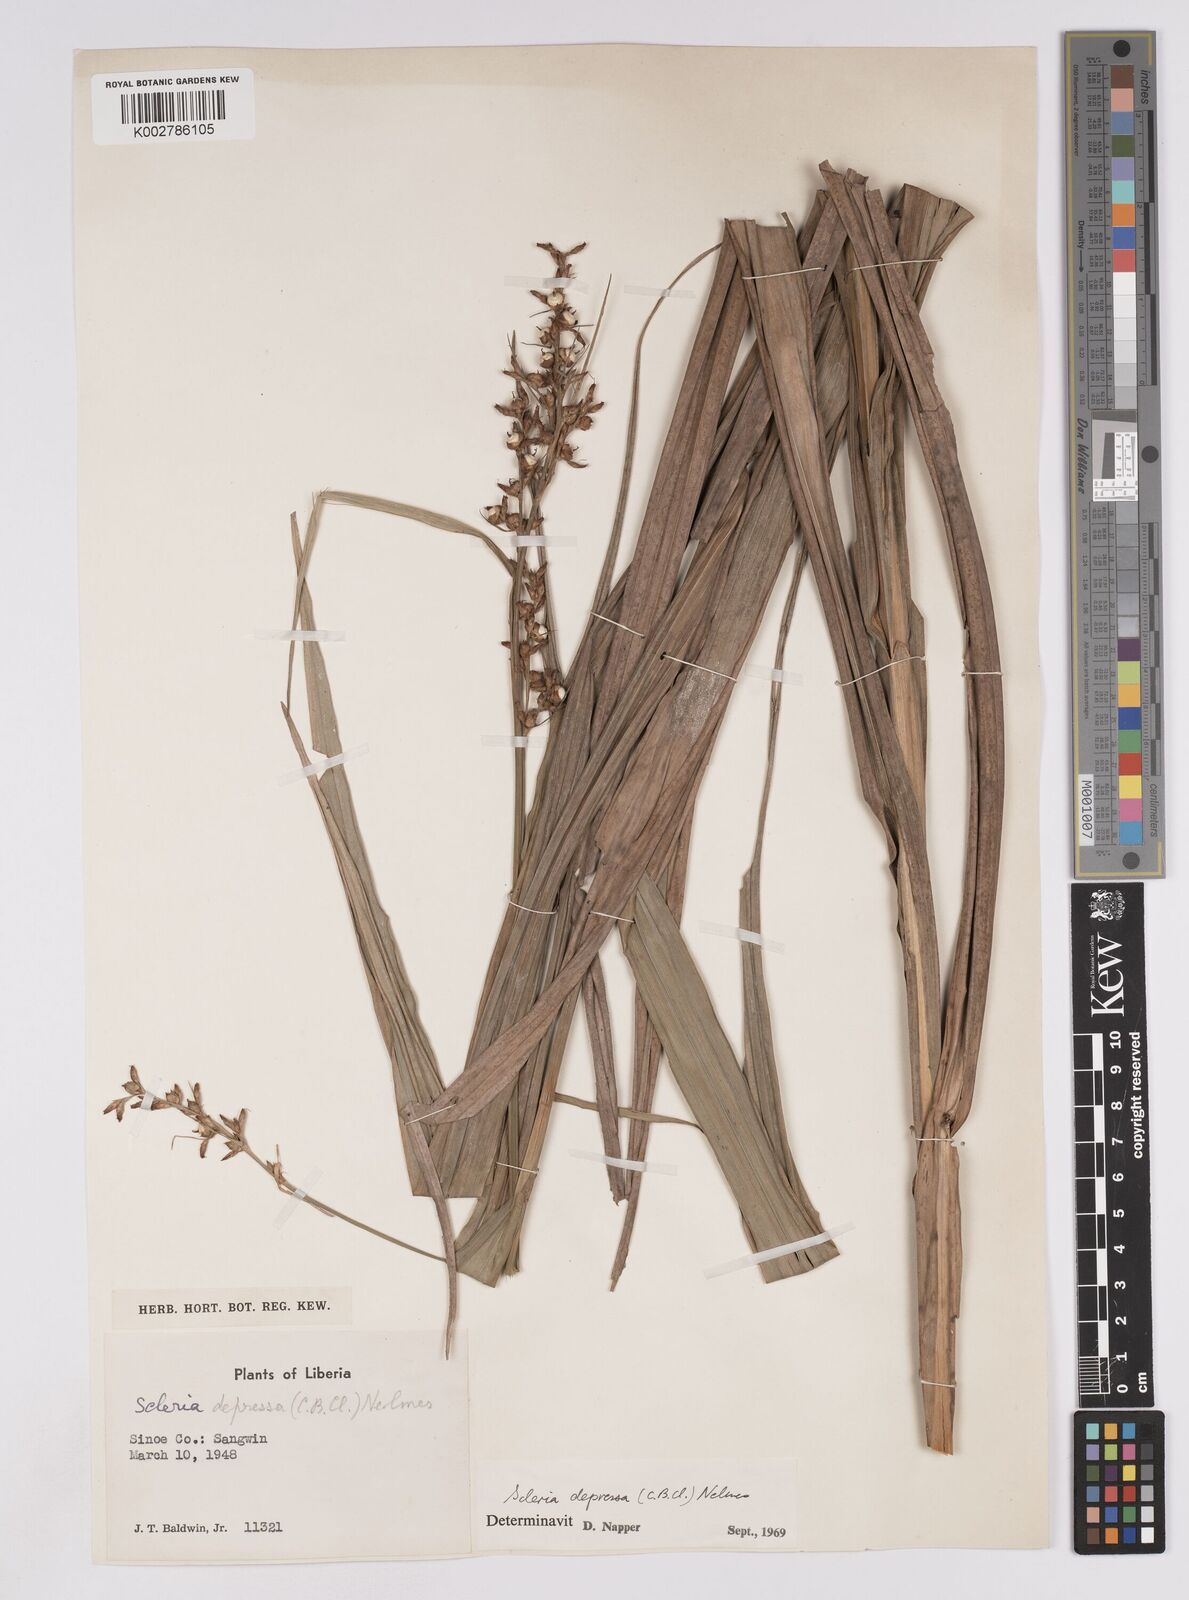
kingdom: Plantae
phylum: Tracheophyta
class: Liliopsida
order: Poales
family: Cyperaceae
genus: Scleria
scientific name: Scleria depressa
